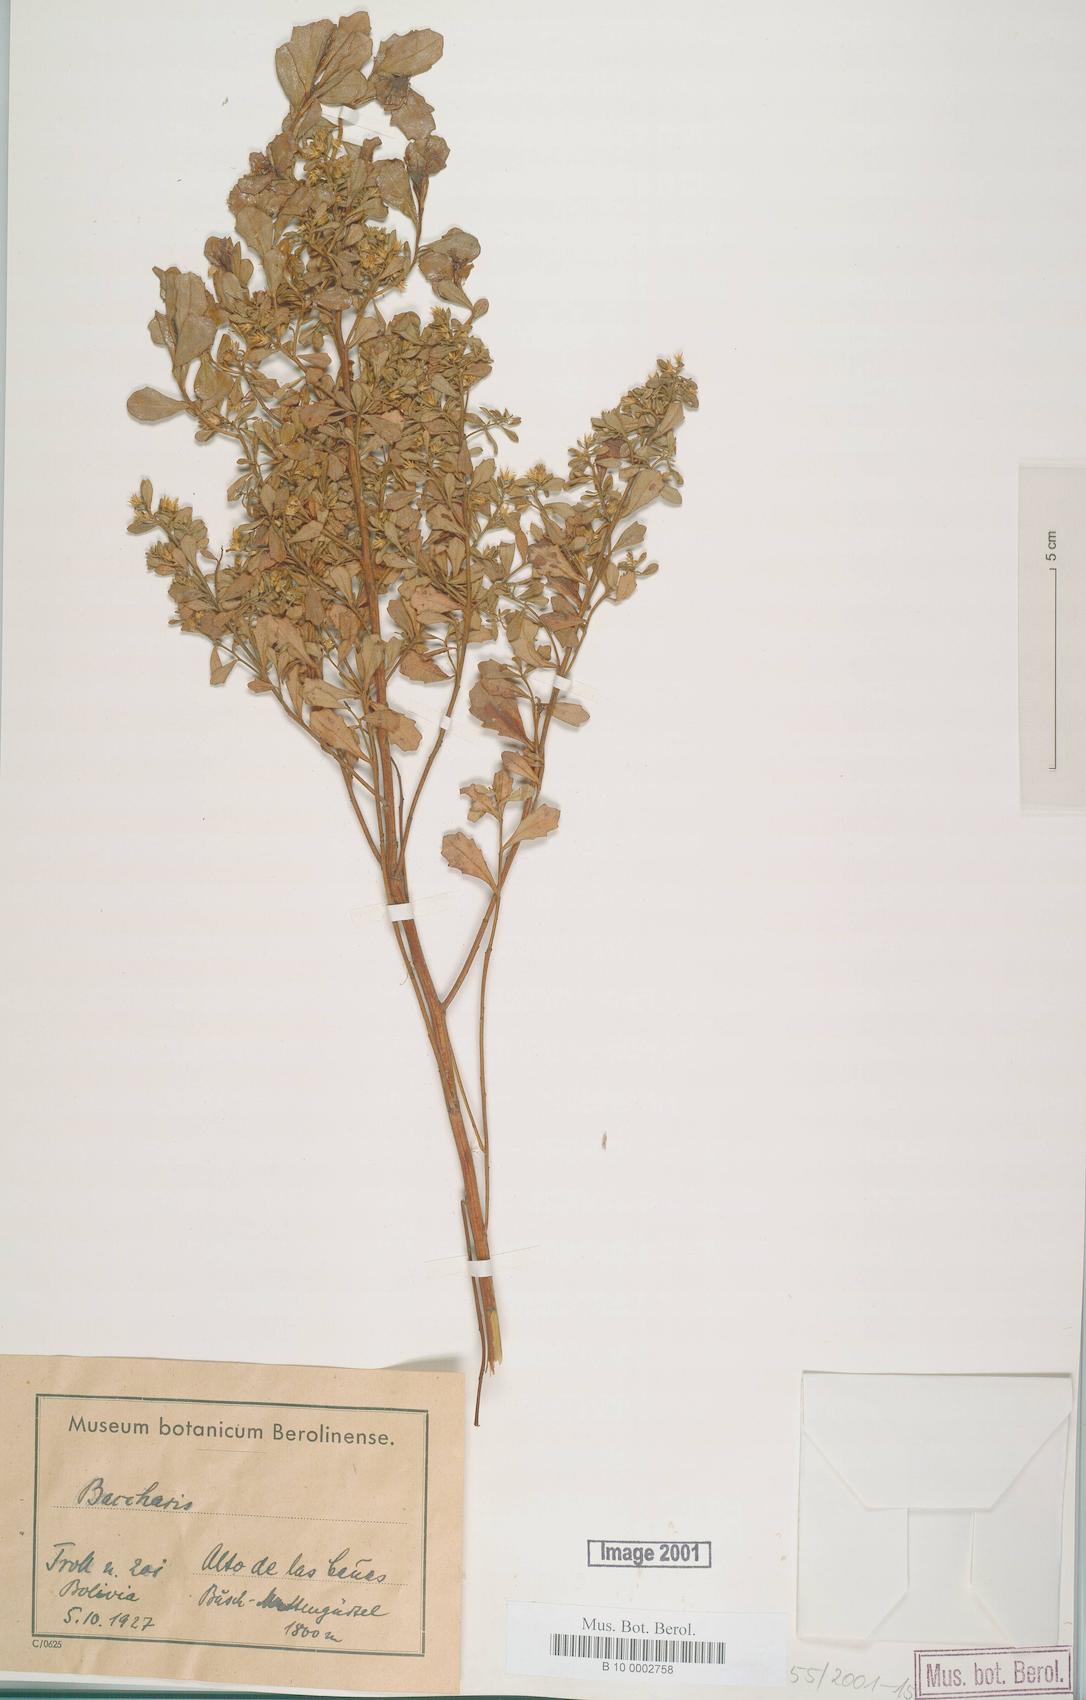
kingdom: Plantae
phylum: Tracheophyta
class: Magnoliopsida
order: Asterales
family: Asteraceae
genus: Baccharis
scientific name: Baccharis
